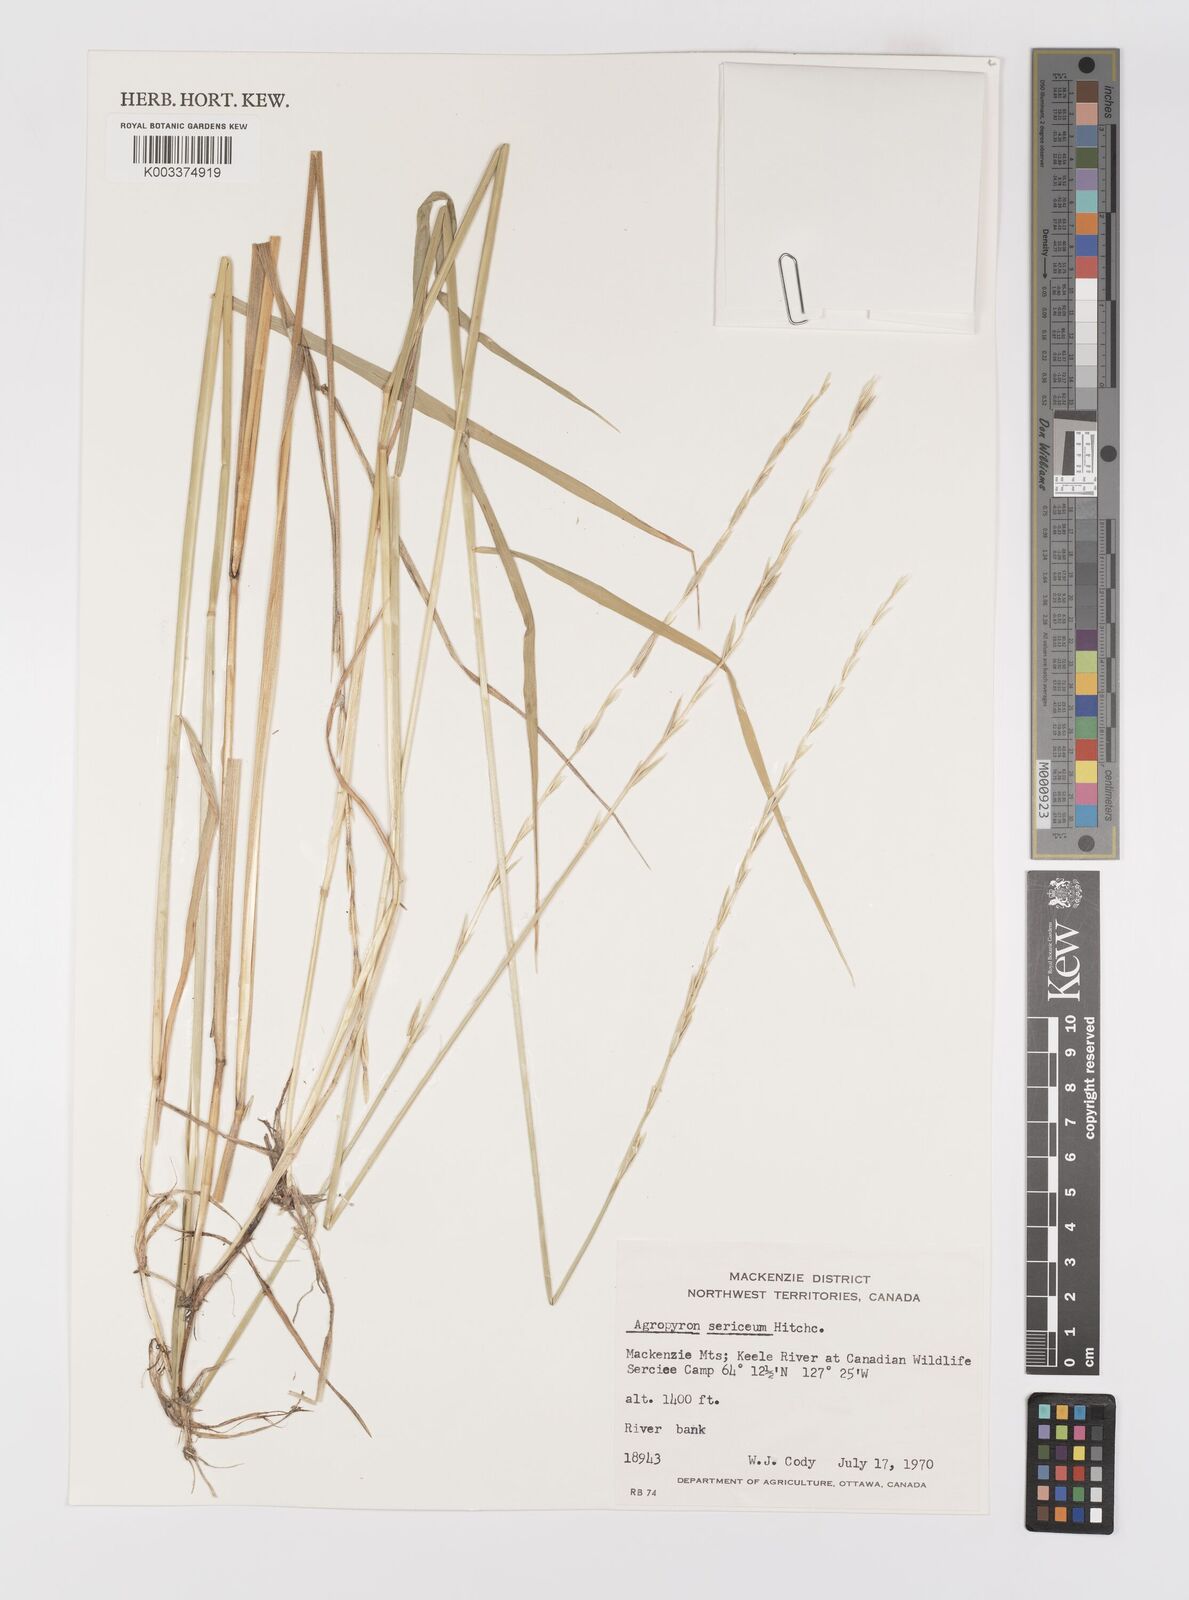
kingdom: Plantae
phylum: Tracheophyta
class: Liliopsida
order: Poales
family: Poaceae
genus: Elymus
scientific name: Elymus macrourus
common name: Northern wheatgrass
